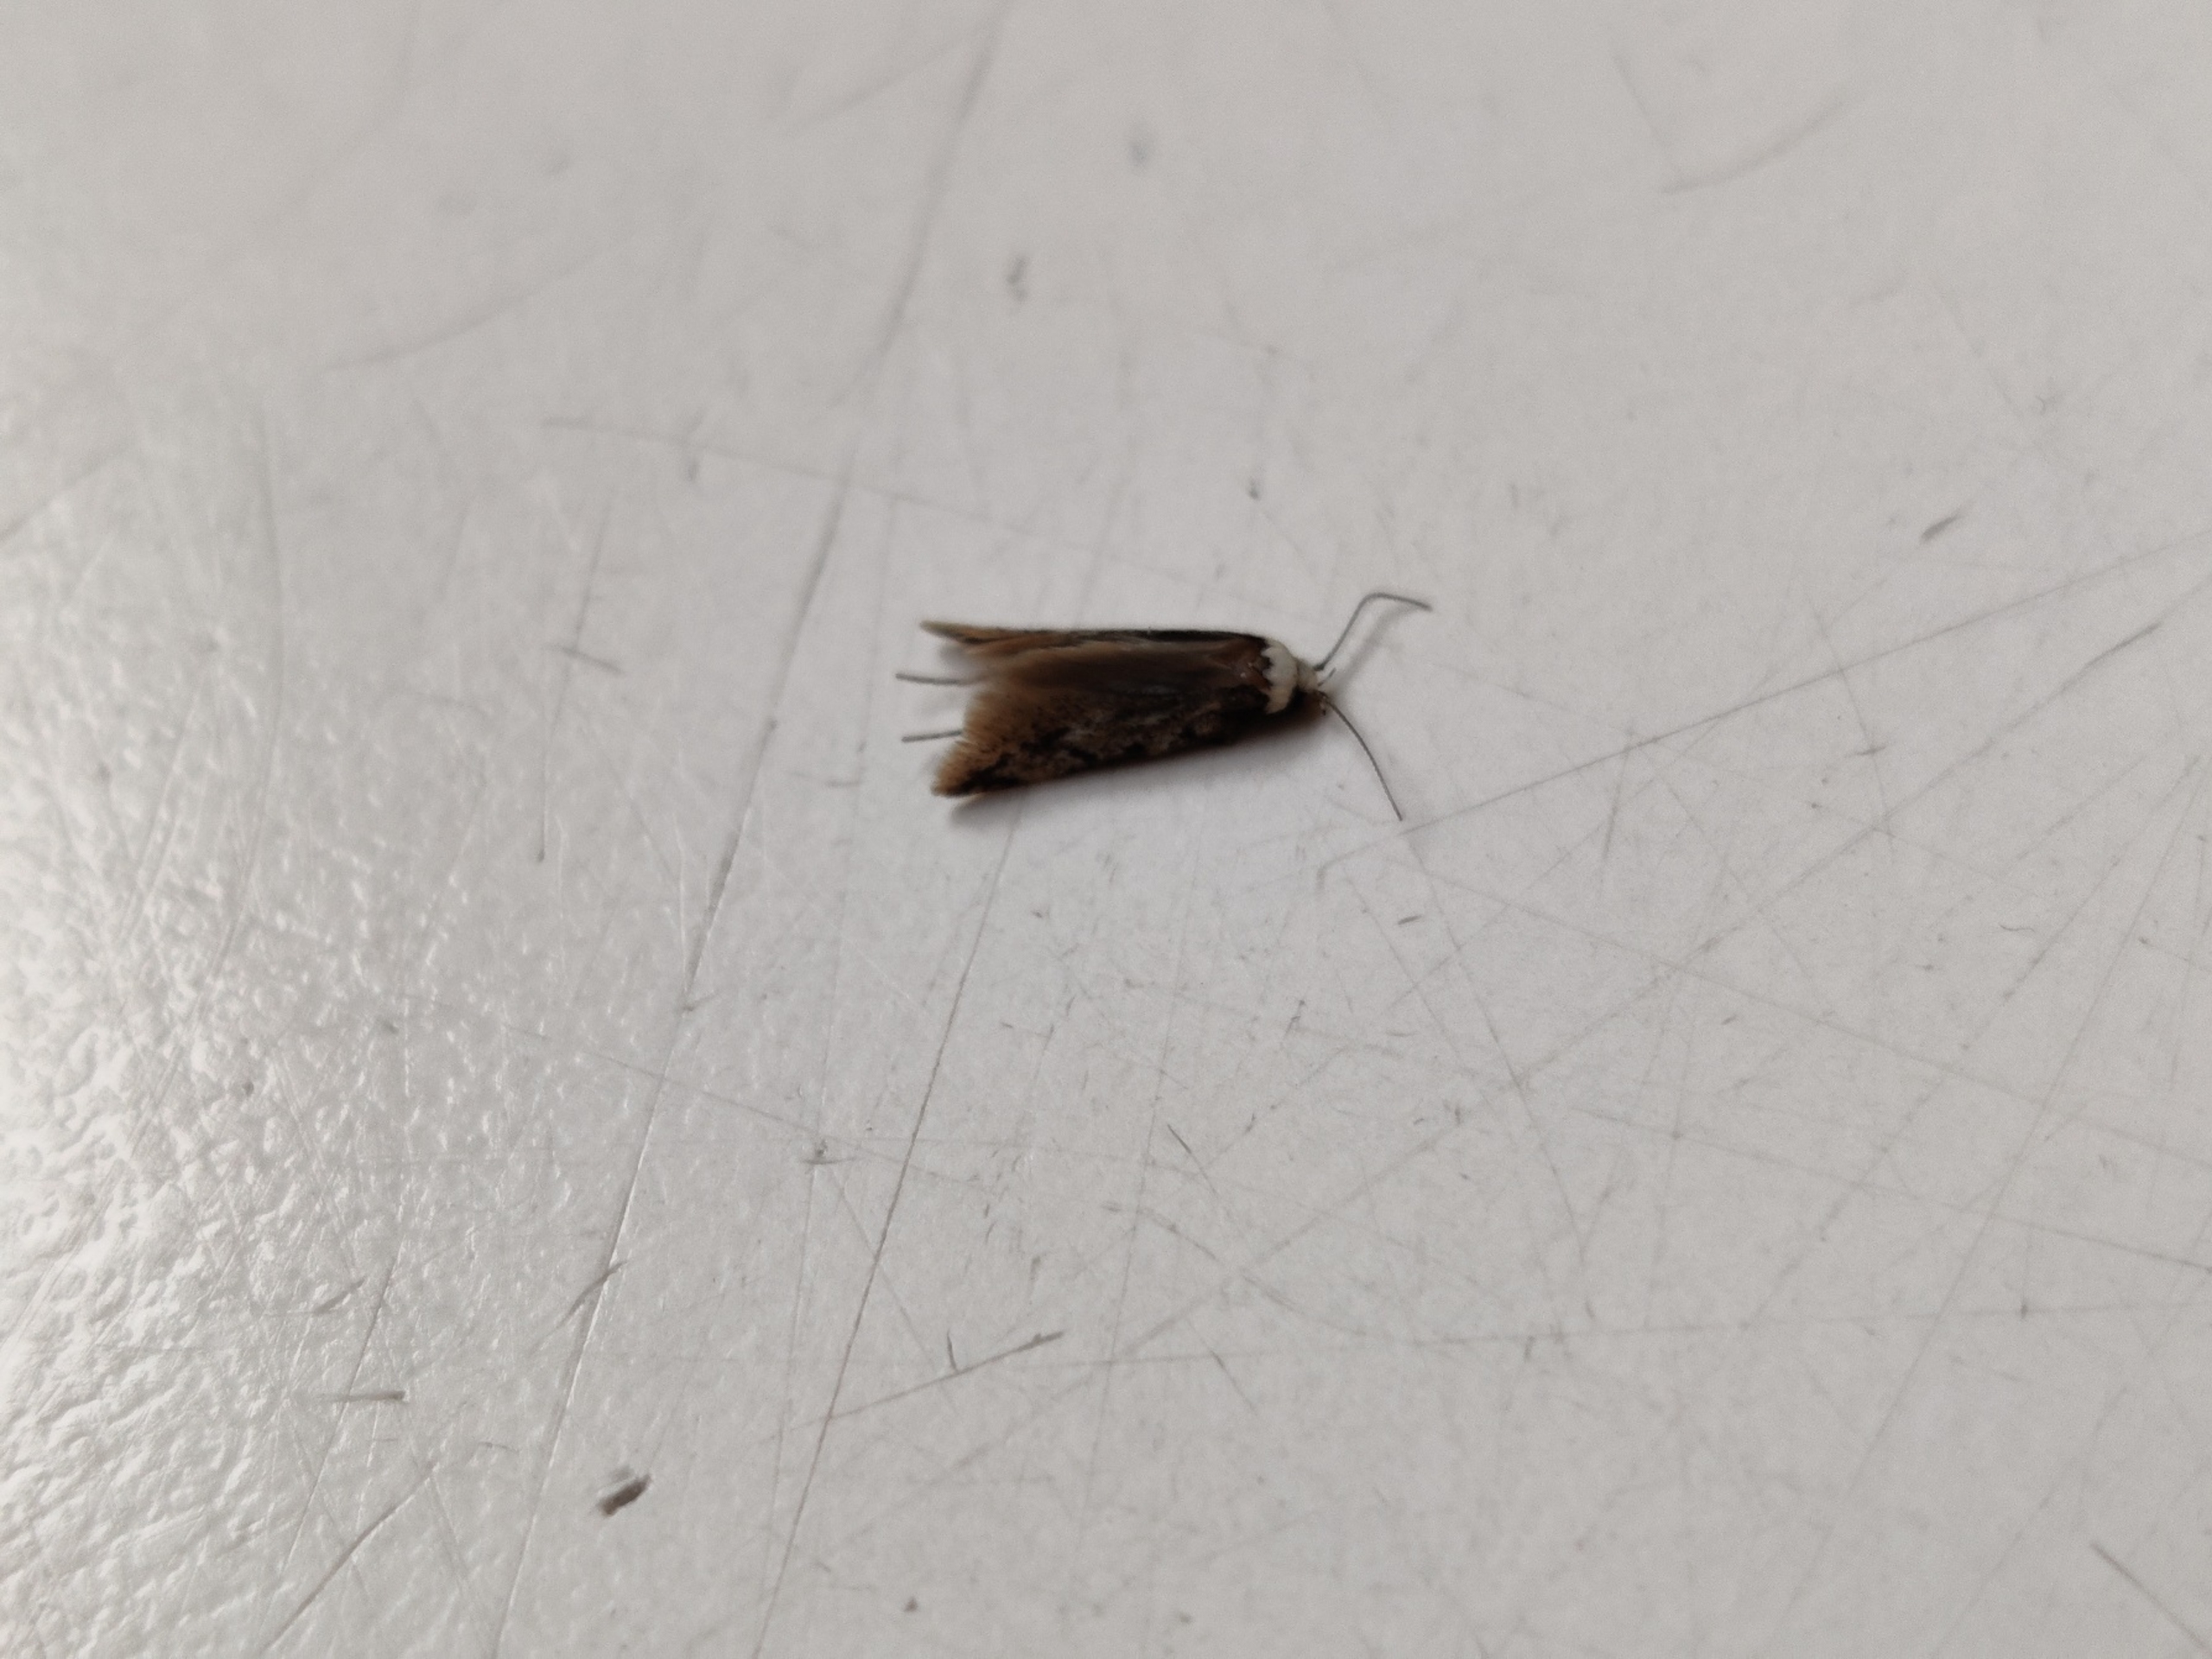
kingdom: Animalia
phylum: Arthropoda
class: Insecta
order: Lepidoptera
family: Oecophoridae
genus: Endrosis
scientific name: Endrosis sarcitrella
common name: Klistermøl
